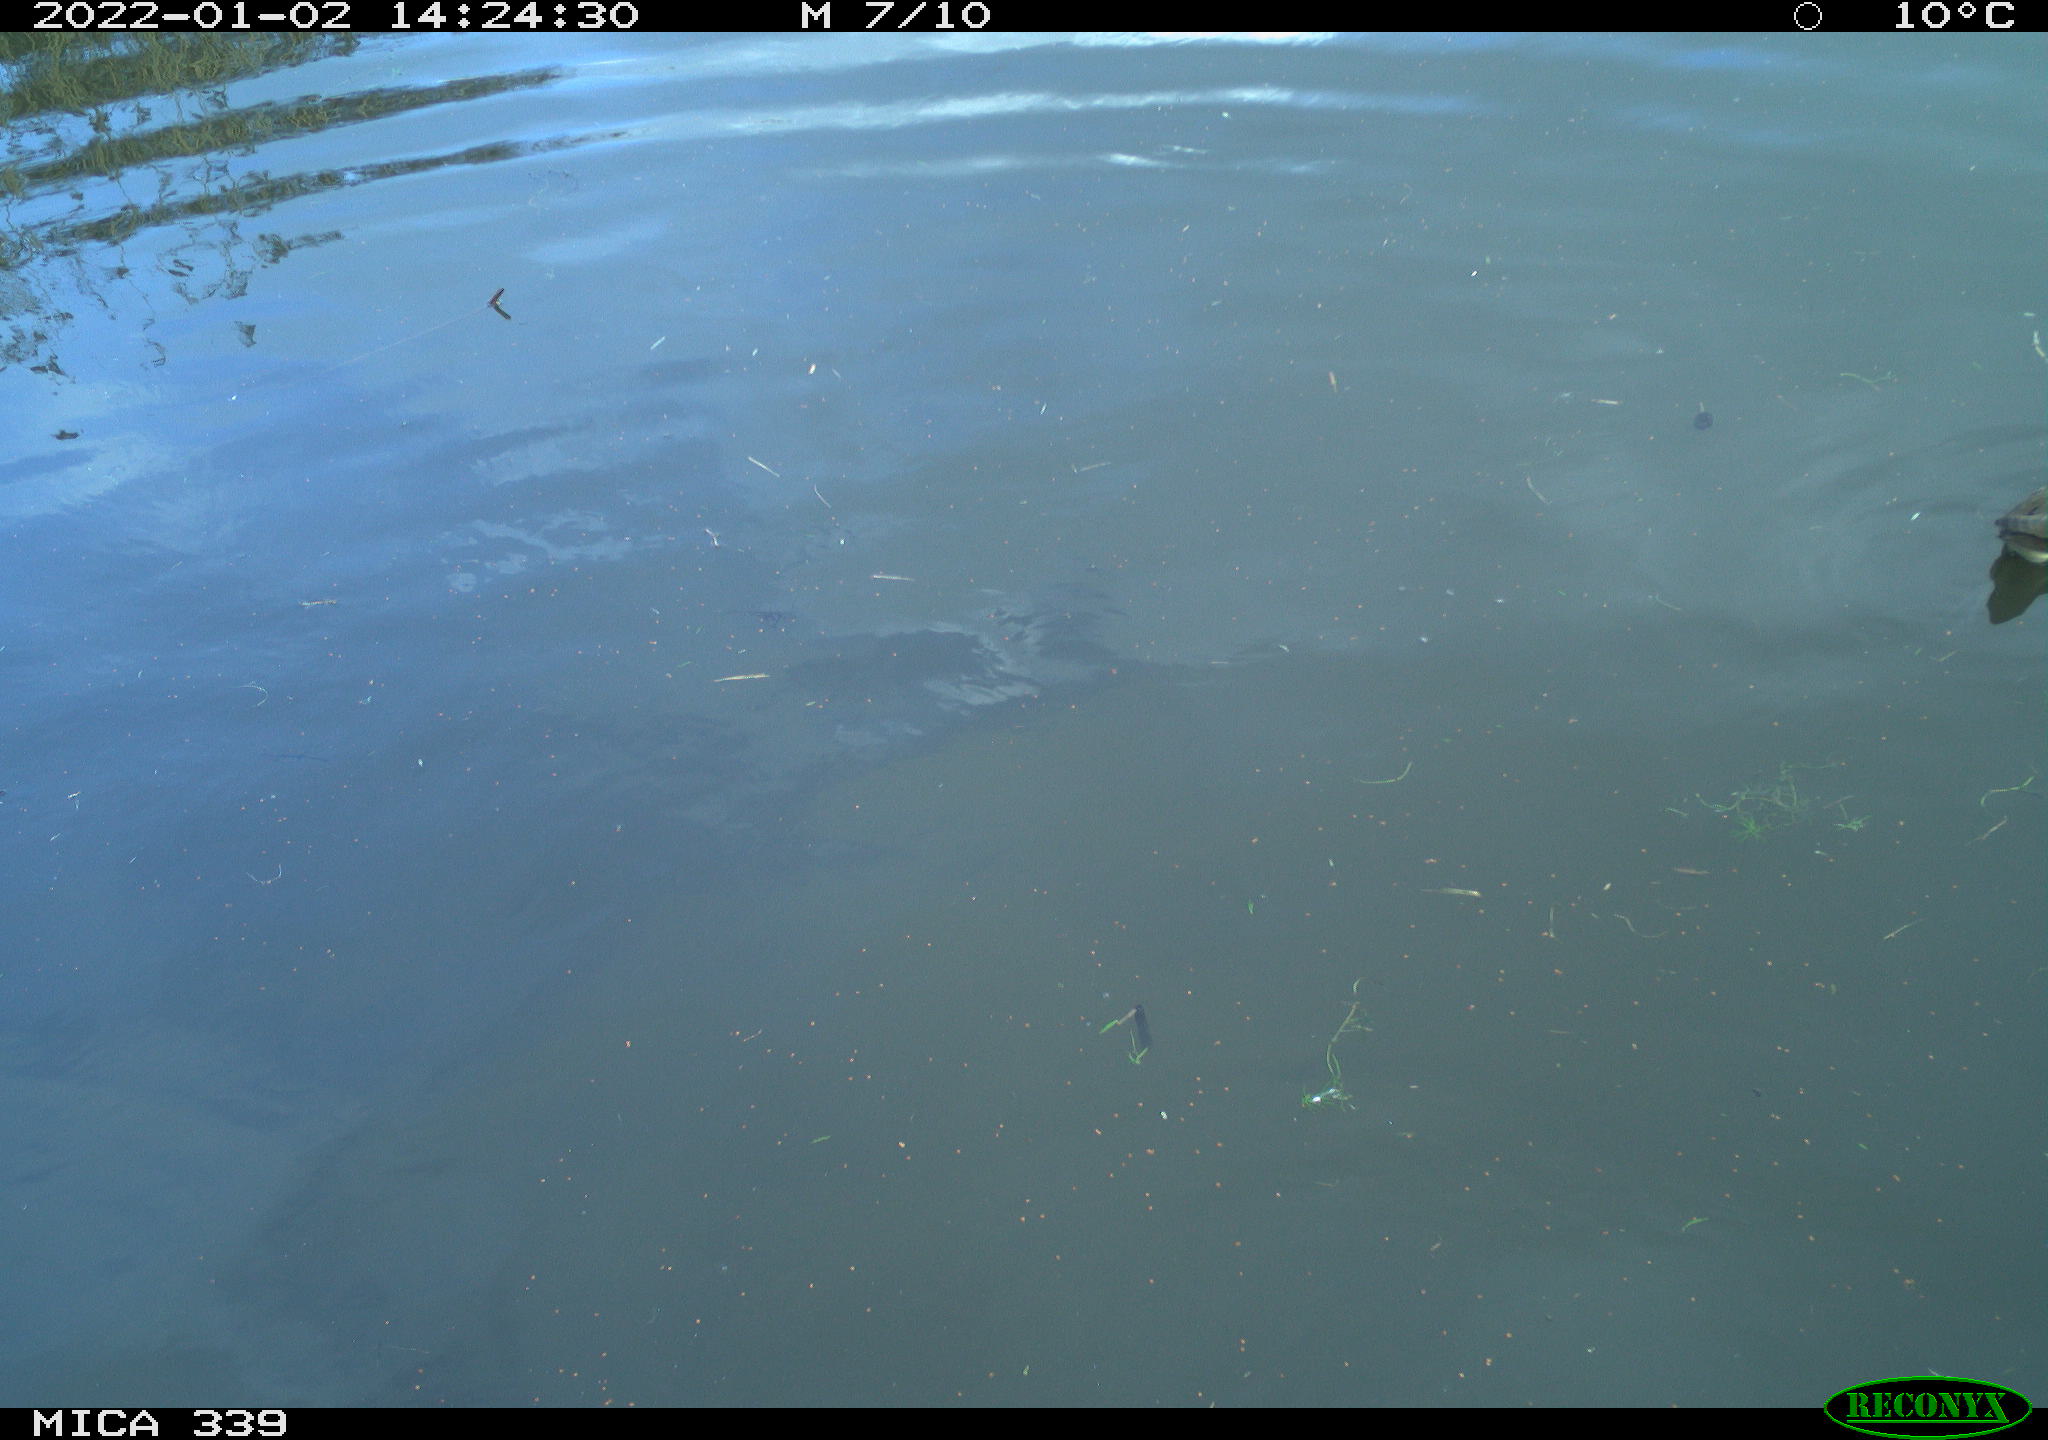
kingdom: Animalia
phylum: Chordata
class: Aves
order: Gruiformes
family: Rallidae
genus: Gallinula
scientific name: Gallinula chloropus
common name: Common moorhen
